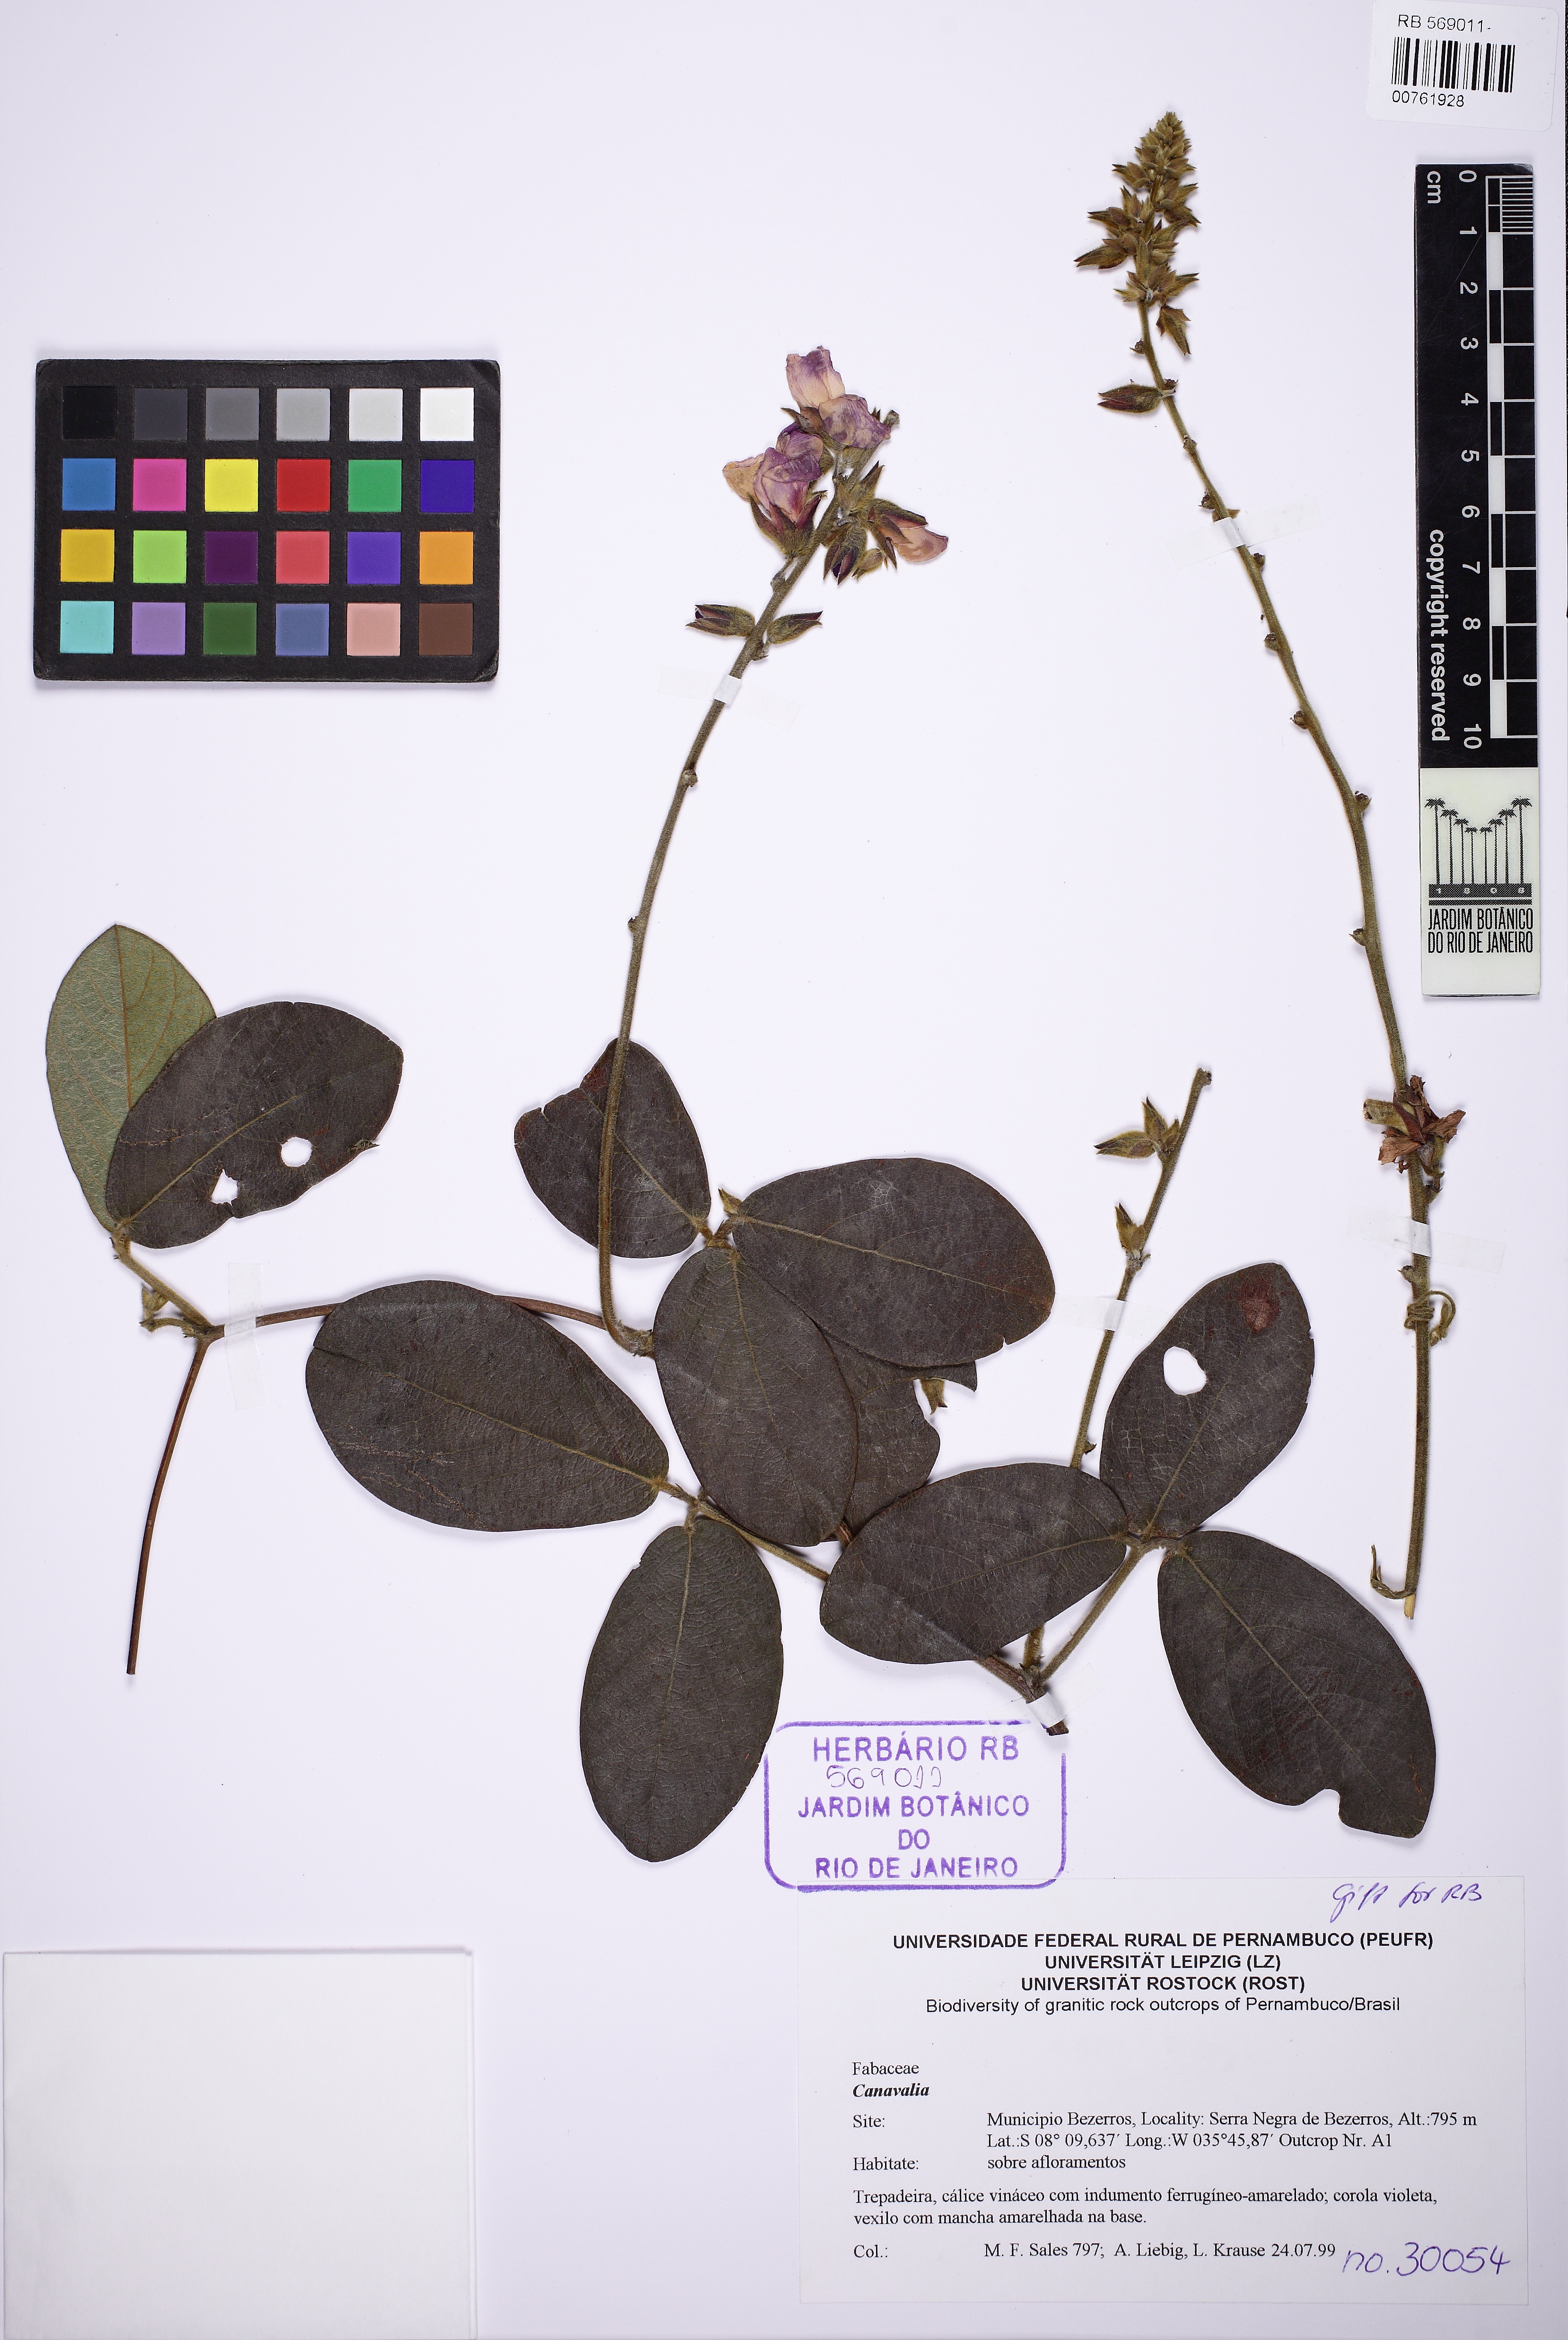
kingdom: Plantae
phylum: Tracheophyta
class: Magnoliopsida
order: Fabales
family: Fabaceae
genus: Dioclea
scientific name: Dioclea
